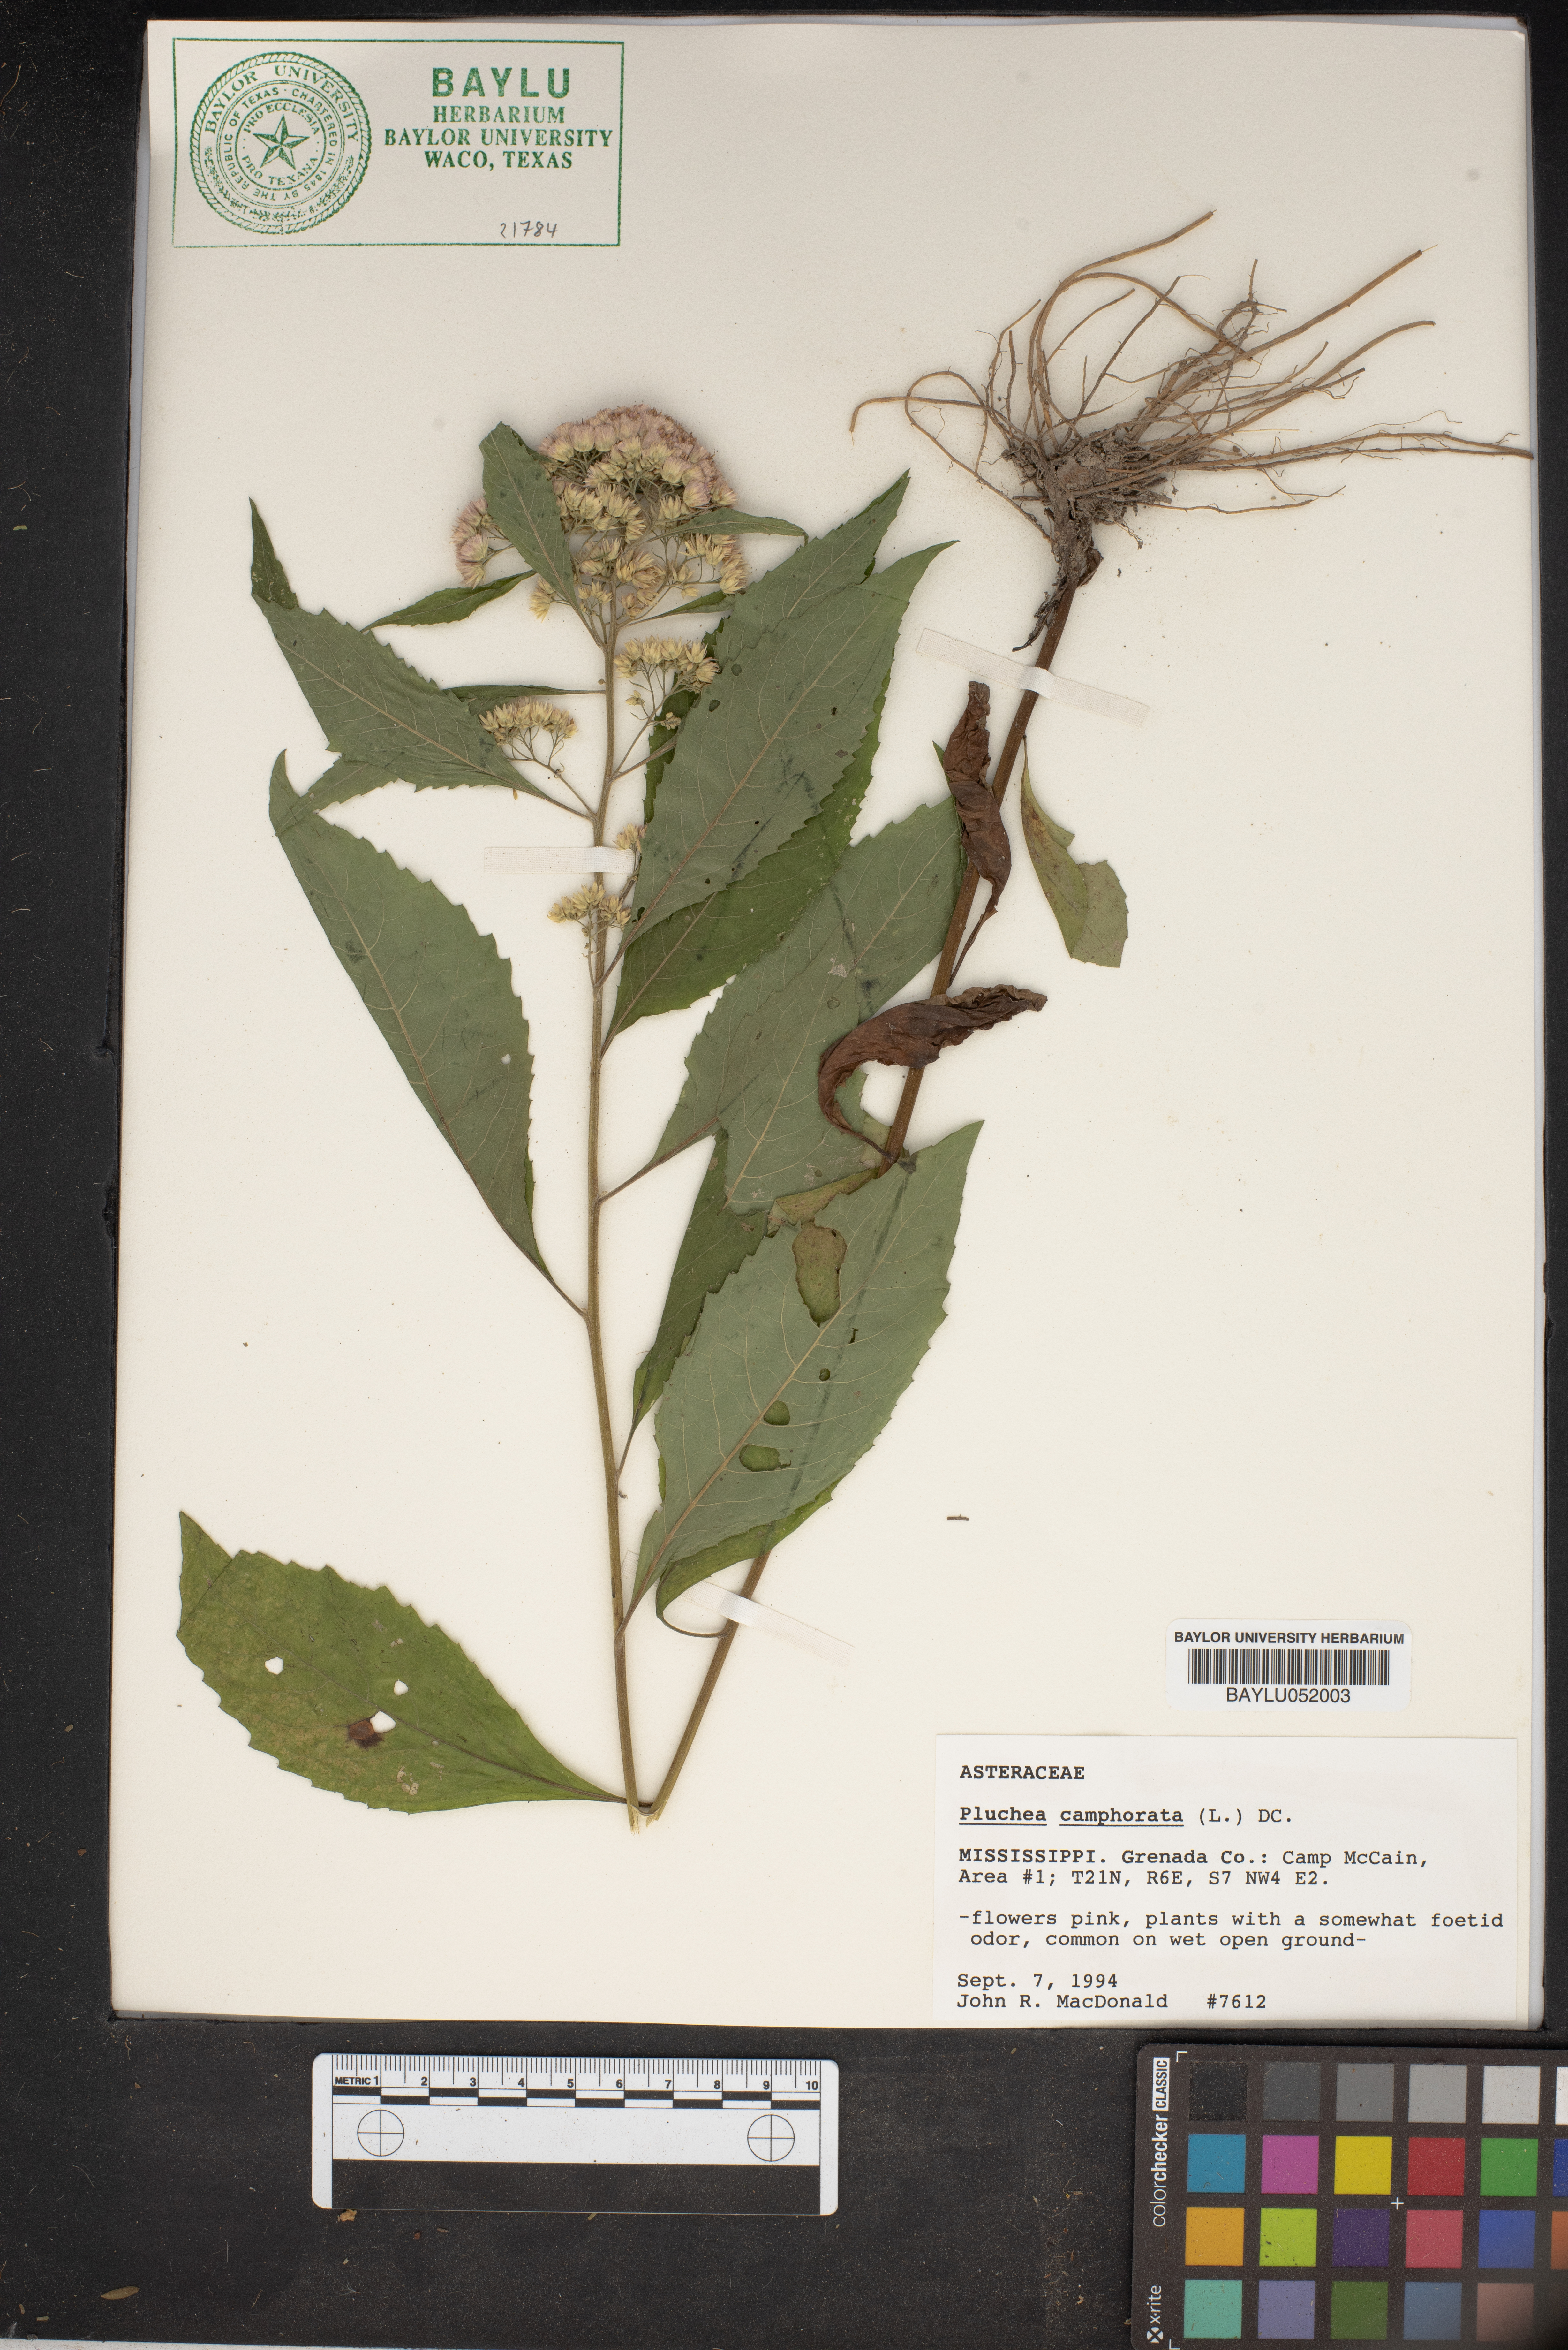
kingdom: Plantae
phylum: Tracheophyta
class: Magnoliopsida
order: Asterales
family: Asteraceae
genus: Pluchea
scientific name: Pluchea camphorata
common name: Camphor pluchea
